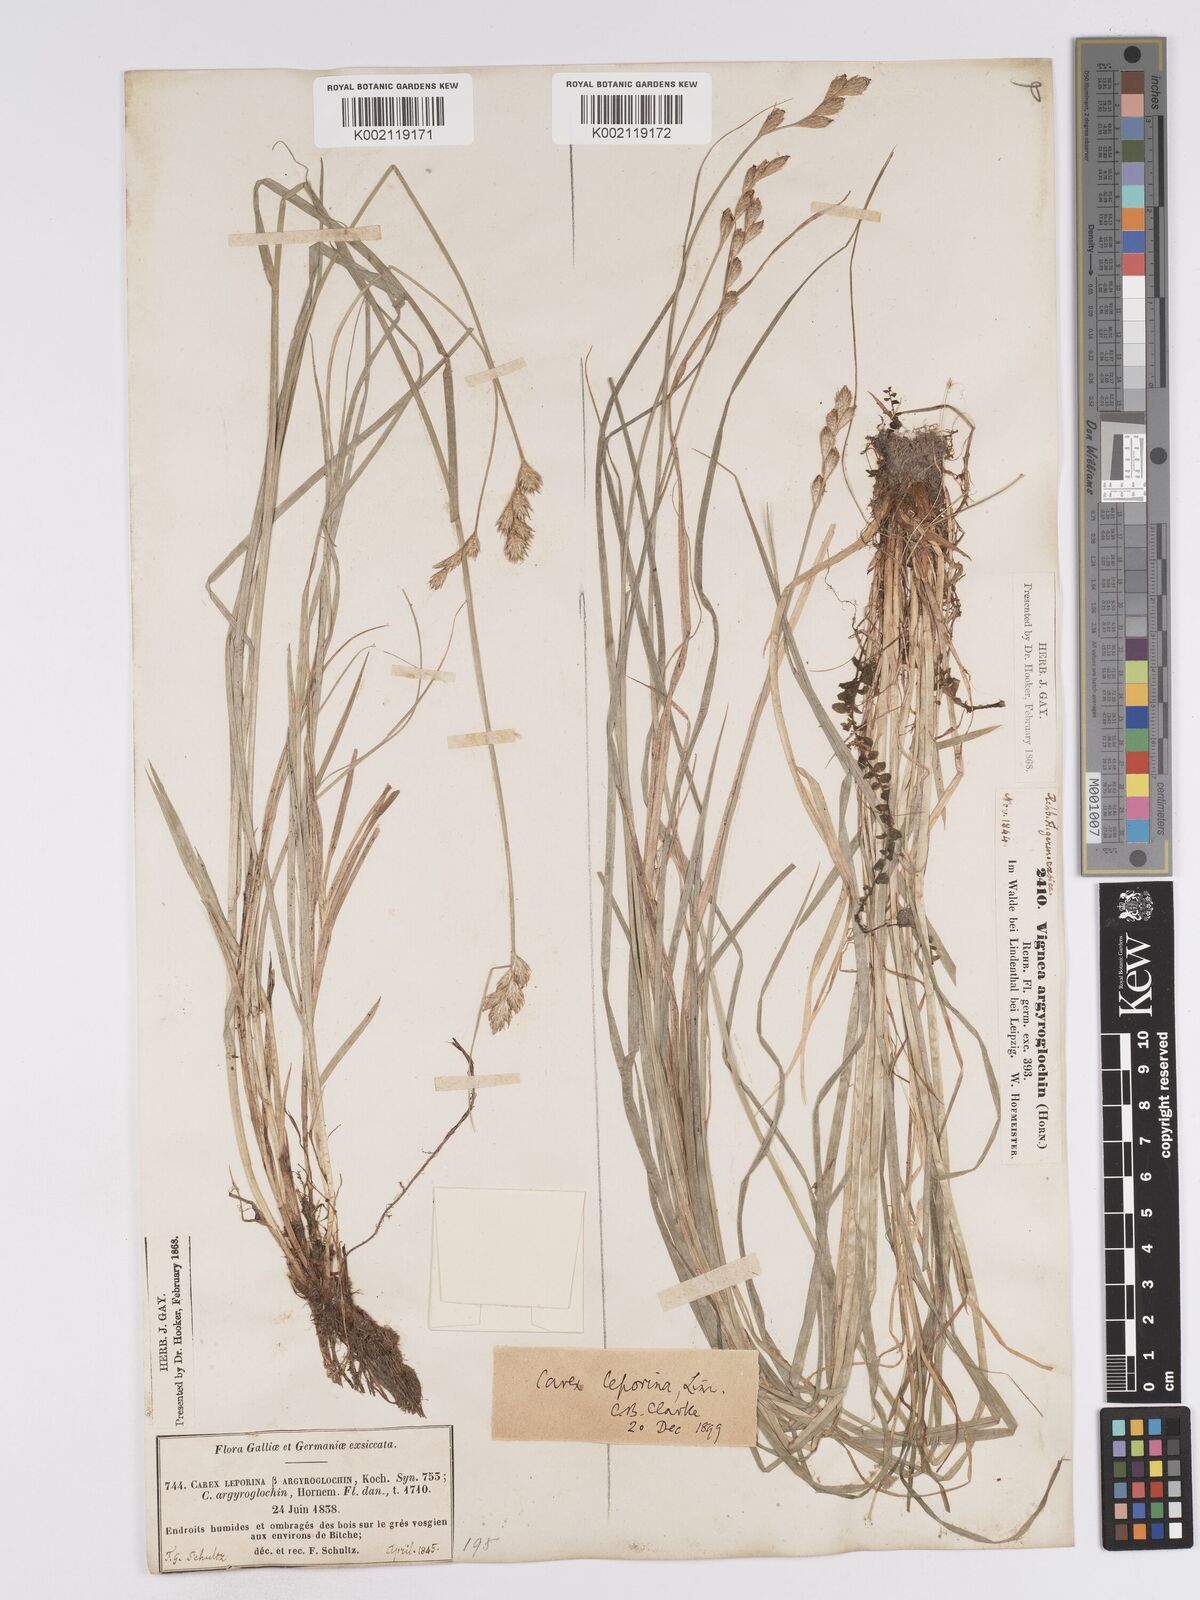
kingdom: Plantae
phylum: Tracheophyta
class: Liliopsida
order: Poales
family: Cyperaceae
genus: Carex
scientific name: Carex leporina
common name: Oval sedge
